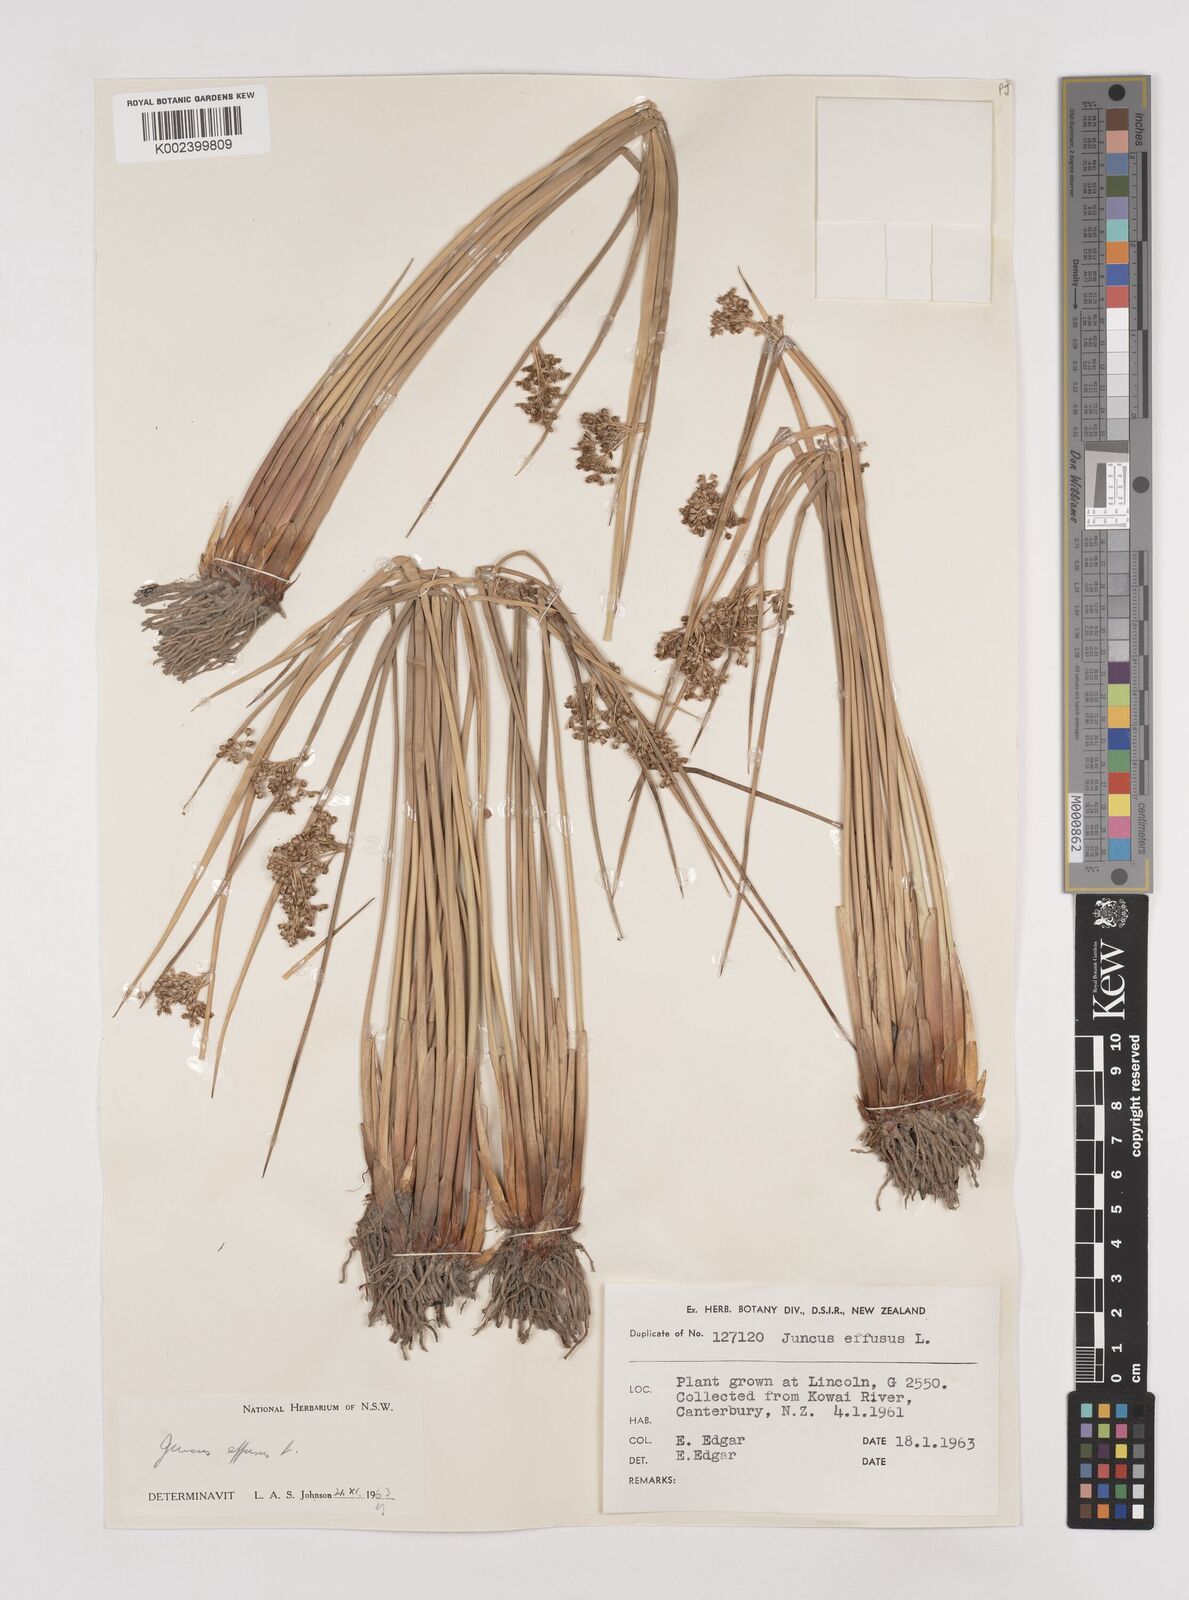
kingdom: Plantae
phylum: Tracheophyta
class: Liliopsida
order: Poales
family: Juncaceae
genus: Juncus
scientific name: Juncus effusus
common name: Soft rush
